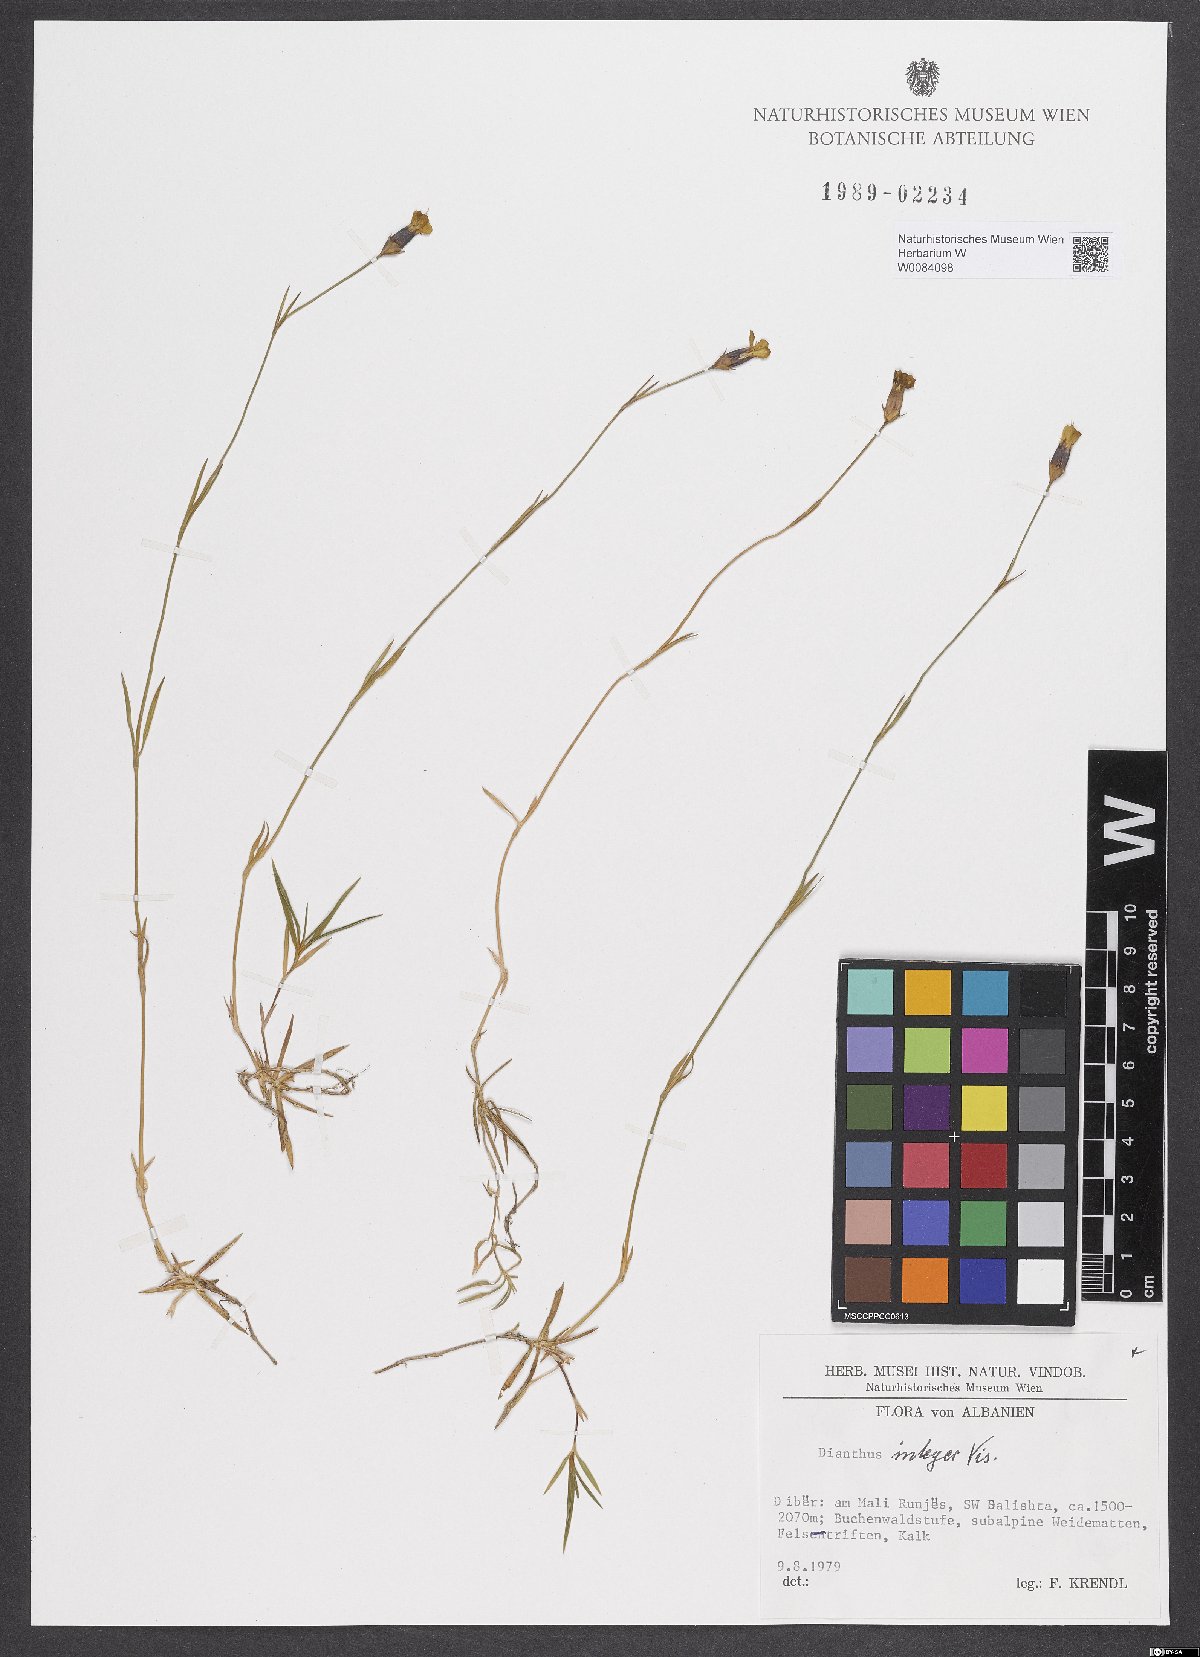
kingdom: Plantae
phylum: Tracheophyta
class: Magnoliopsida
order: Caryophyllales
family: Caryophyllaceae
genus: Dianthus
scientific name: Dianthus integer
